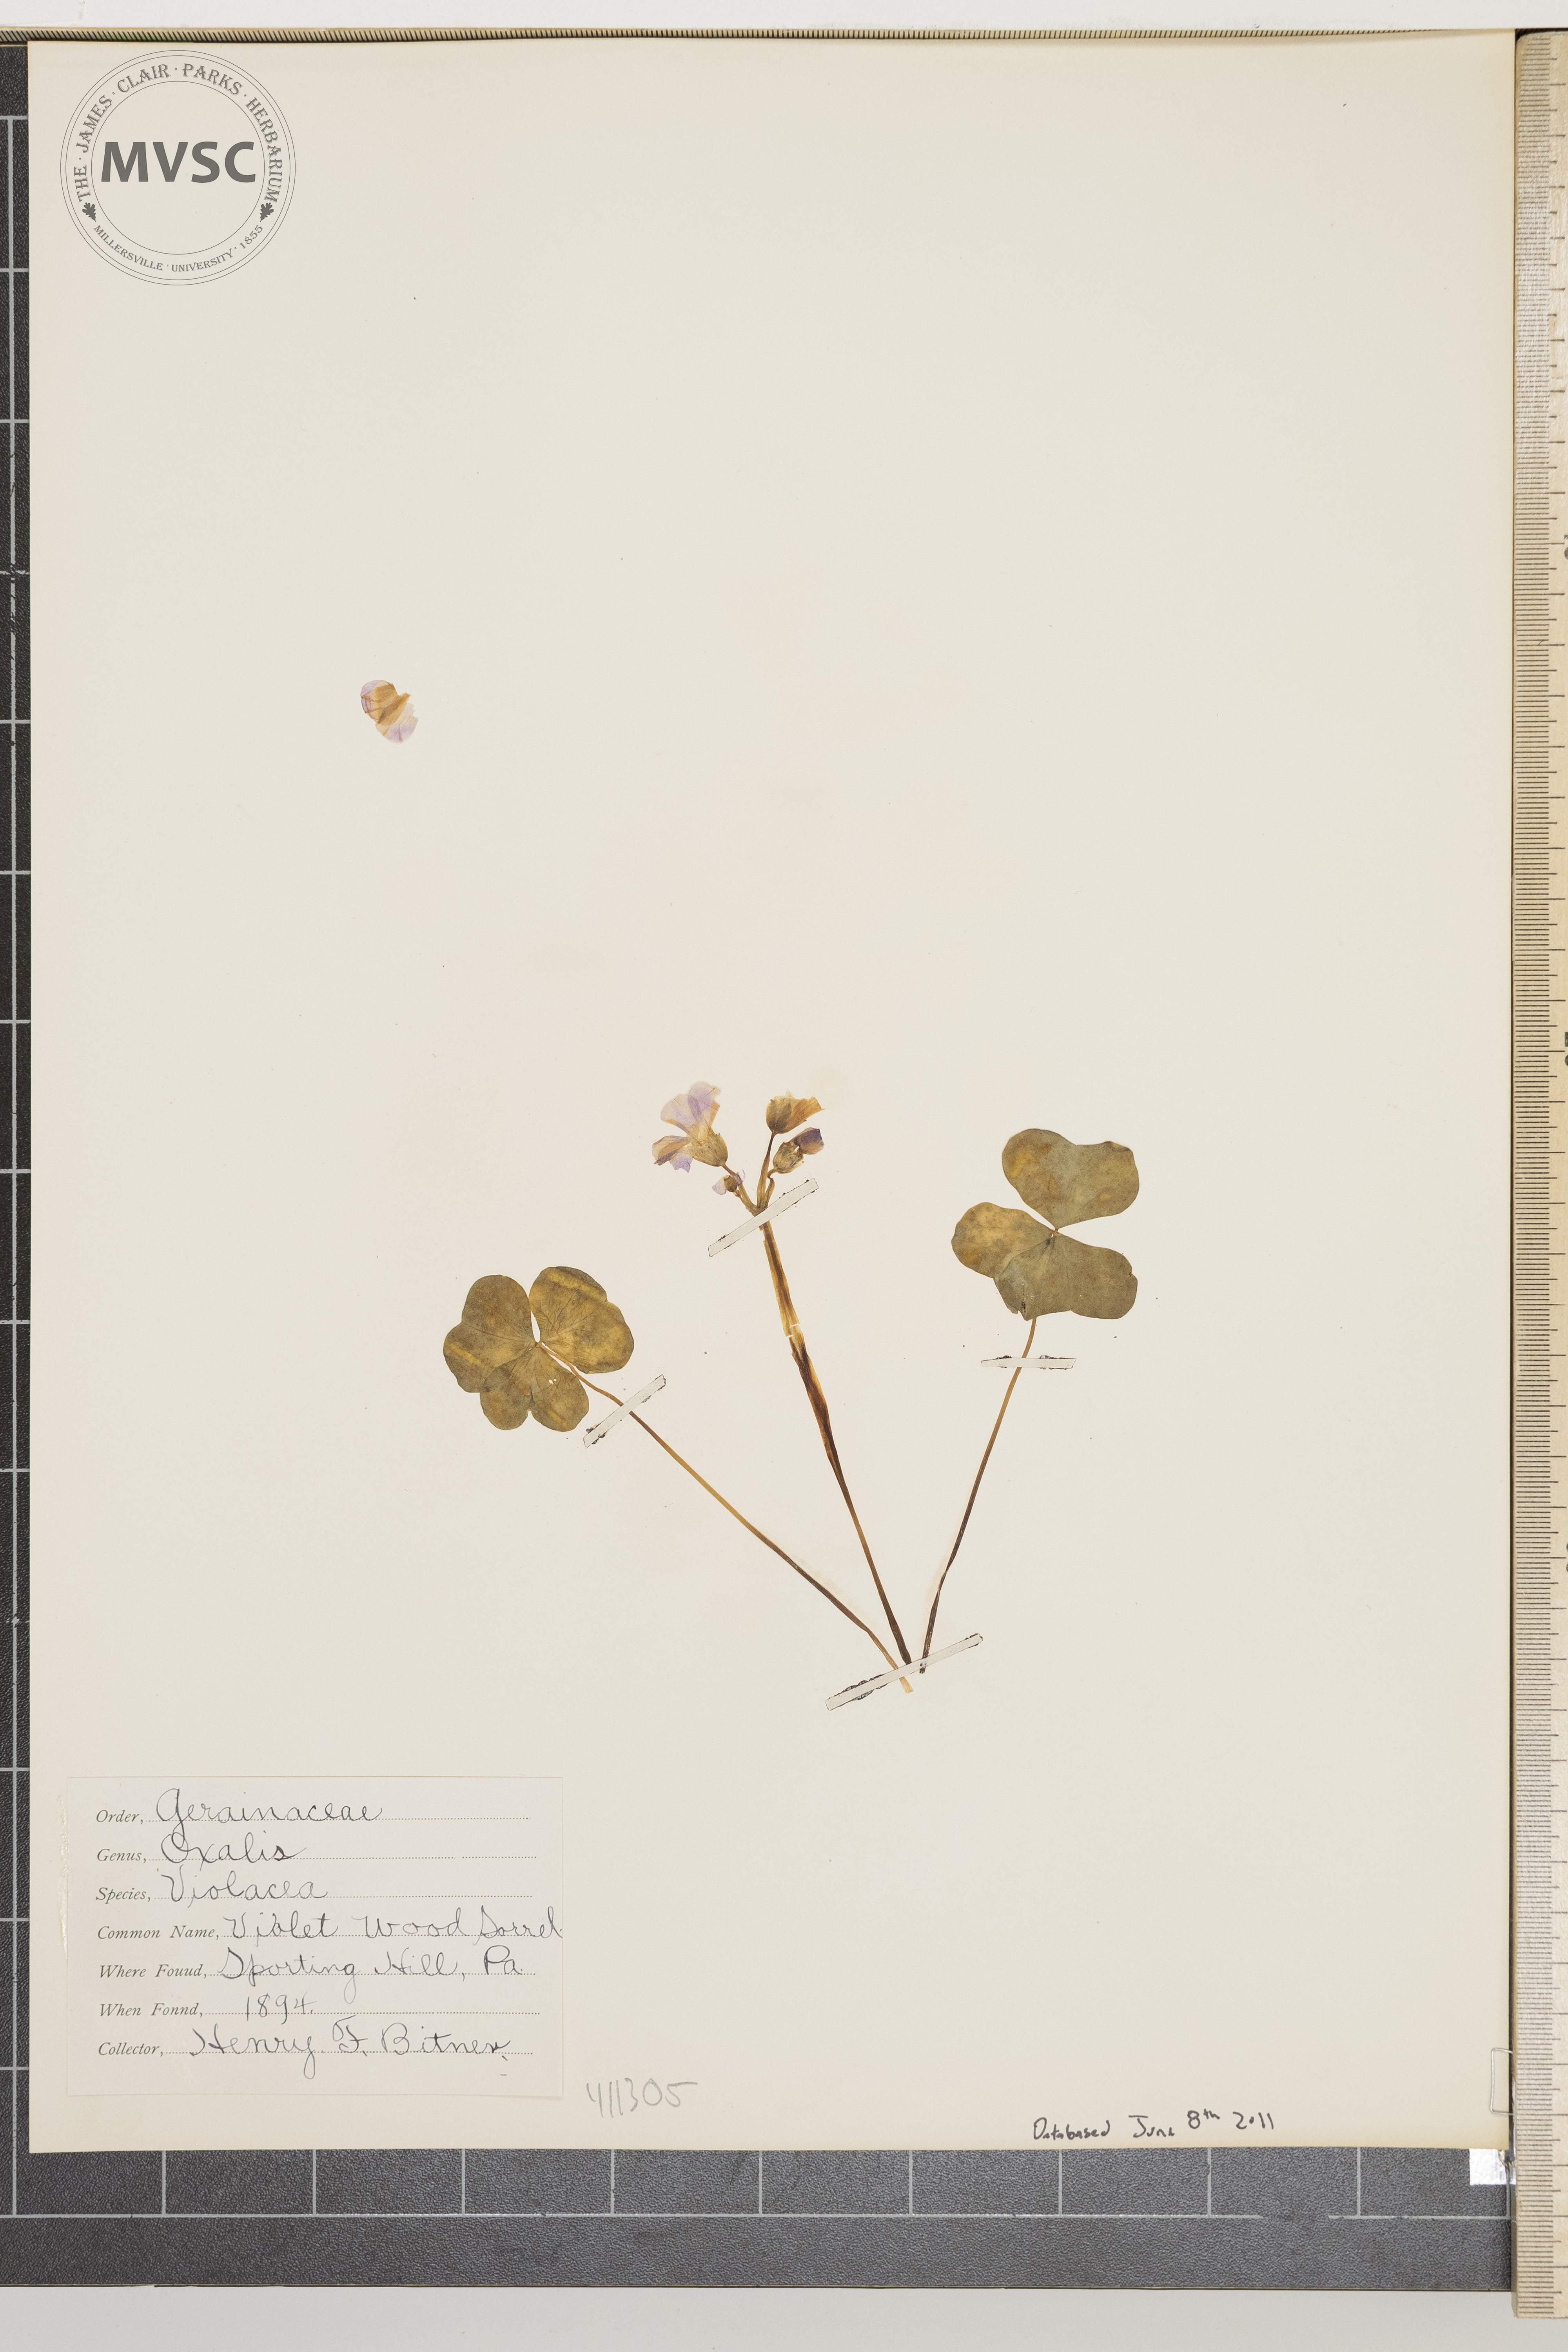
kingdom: Plantae
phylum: Tracheophyta
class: Magnoliopsida
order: Oxalidales
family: Oxalidaceae
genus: Oxalis
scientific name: Oxalis violacea
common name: Violet wood-sorrel
